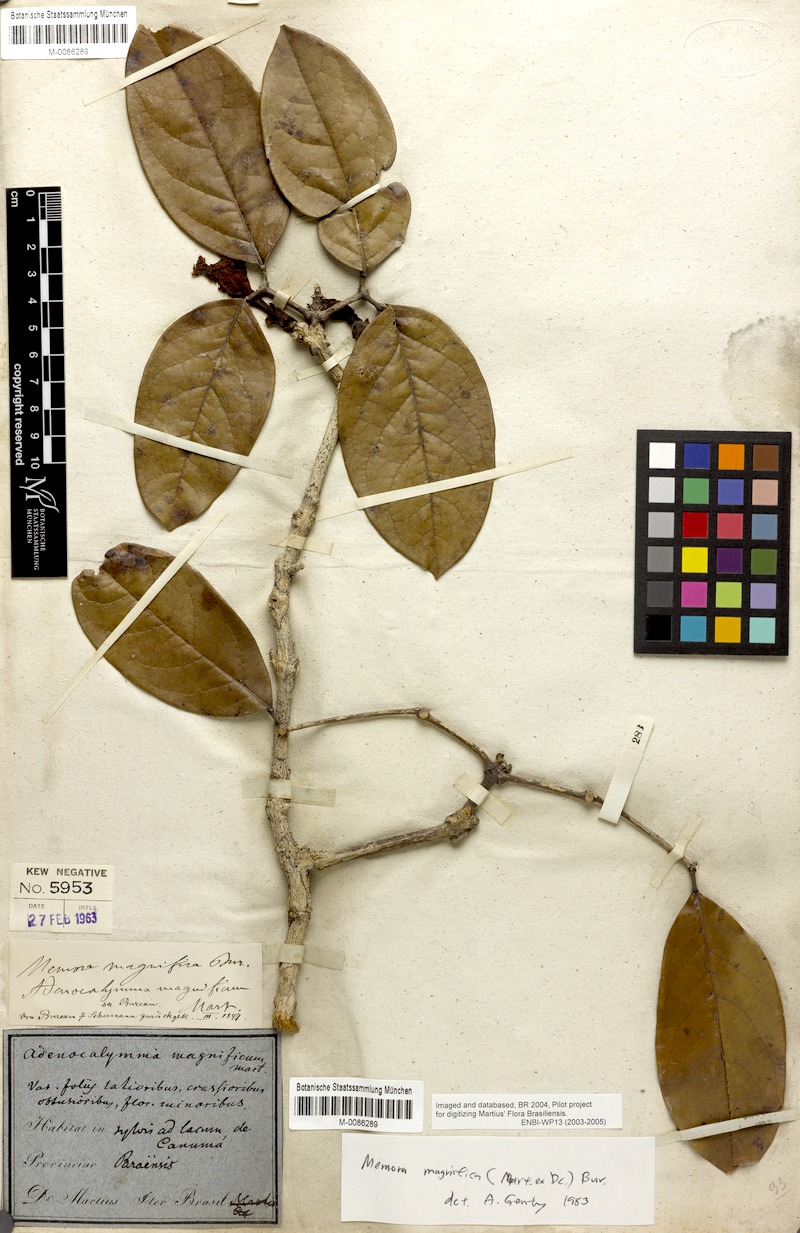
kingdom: Plantae
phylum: Tracheophyta
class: Magnoliopsida
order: Lamiales
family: Bignoniaceae
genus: Adenocalymma
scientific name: Adenocalymma magnificum
